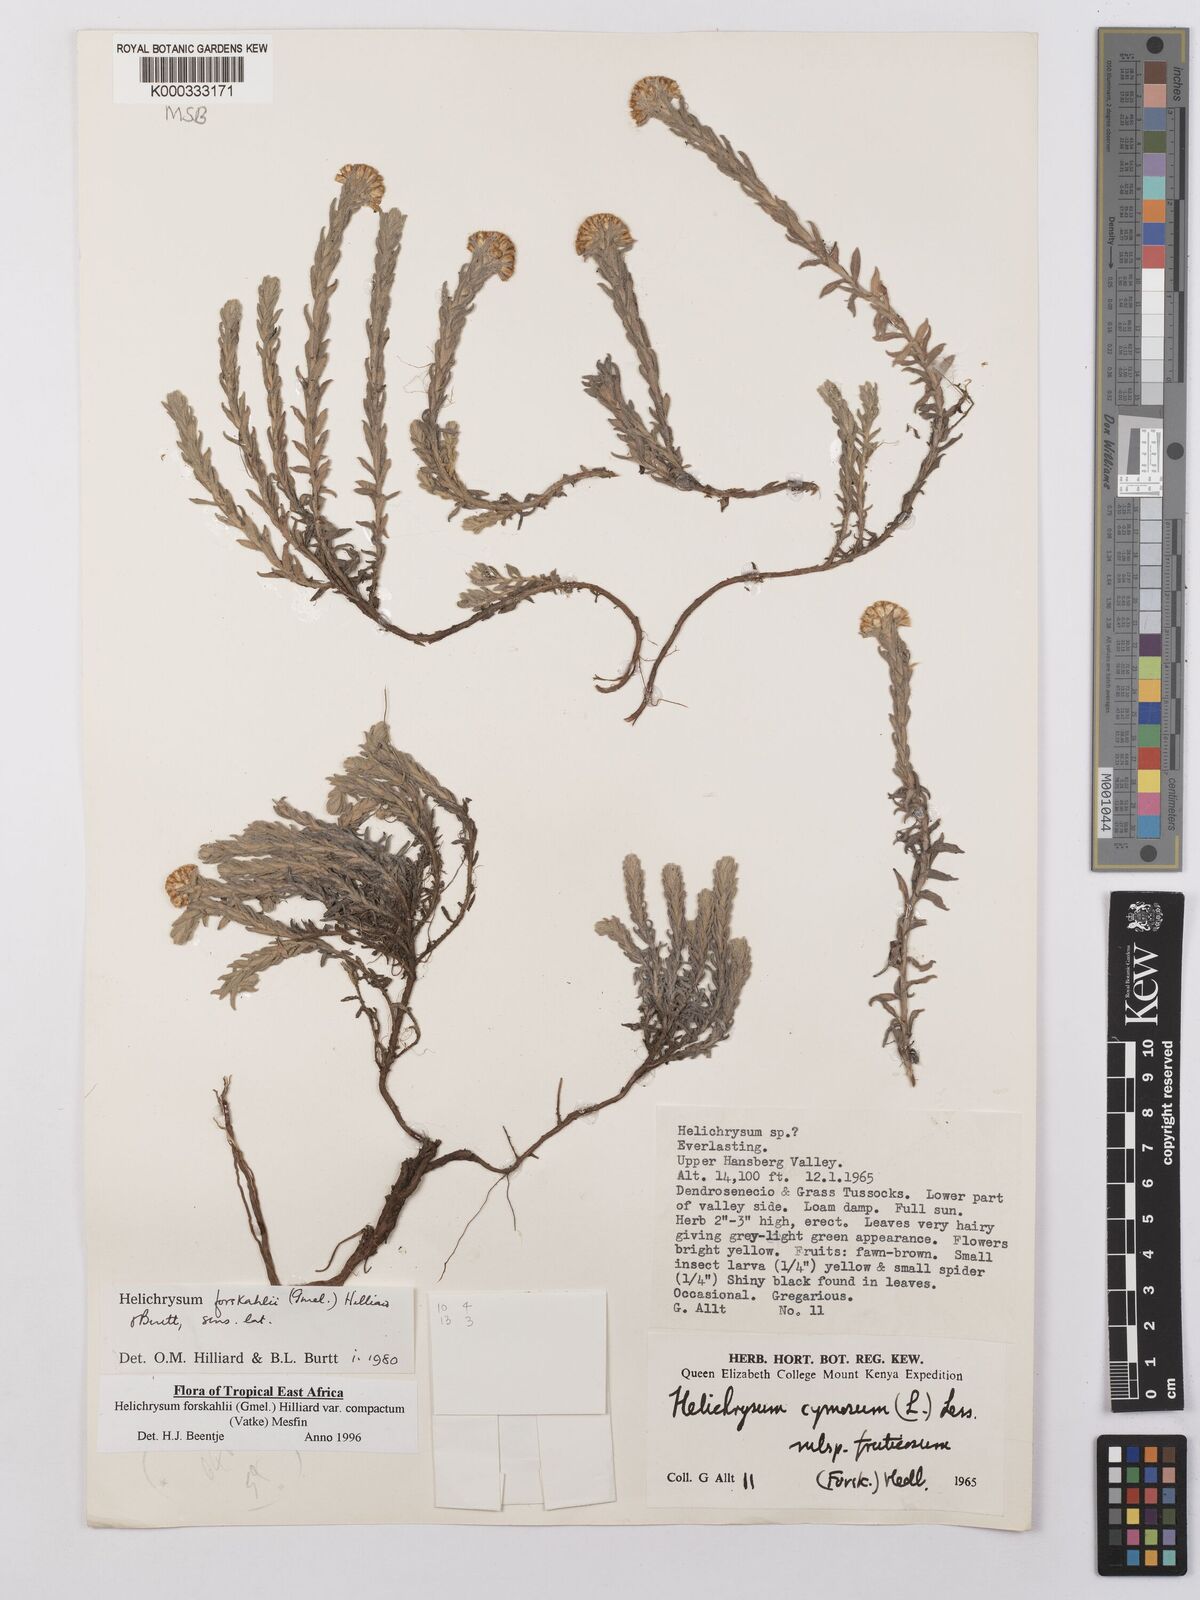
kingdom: Plantae
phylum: Tracheophyta
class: Magnoliopsida
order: Asterales
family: Asteraceae
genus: Helichrysum
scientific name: Helichrysum forskahlii
